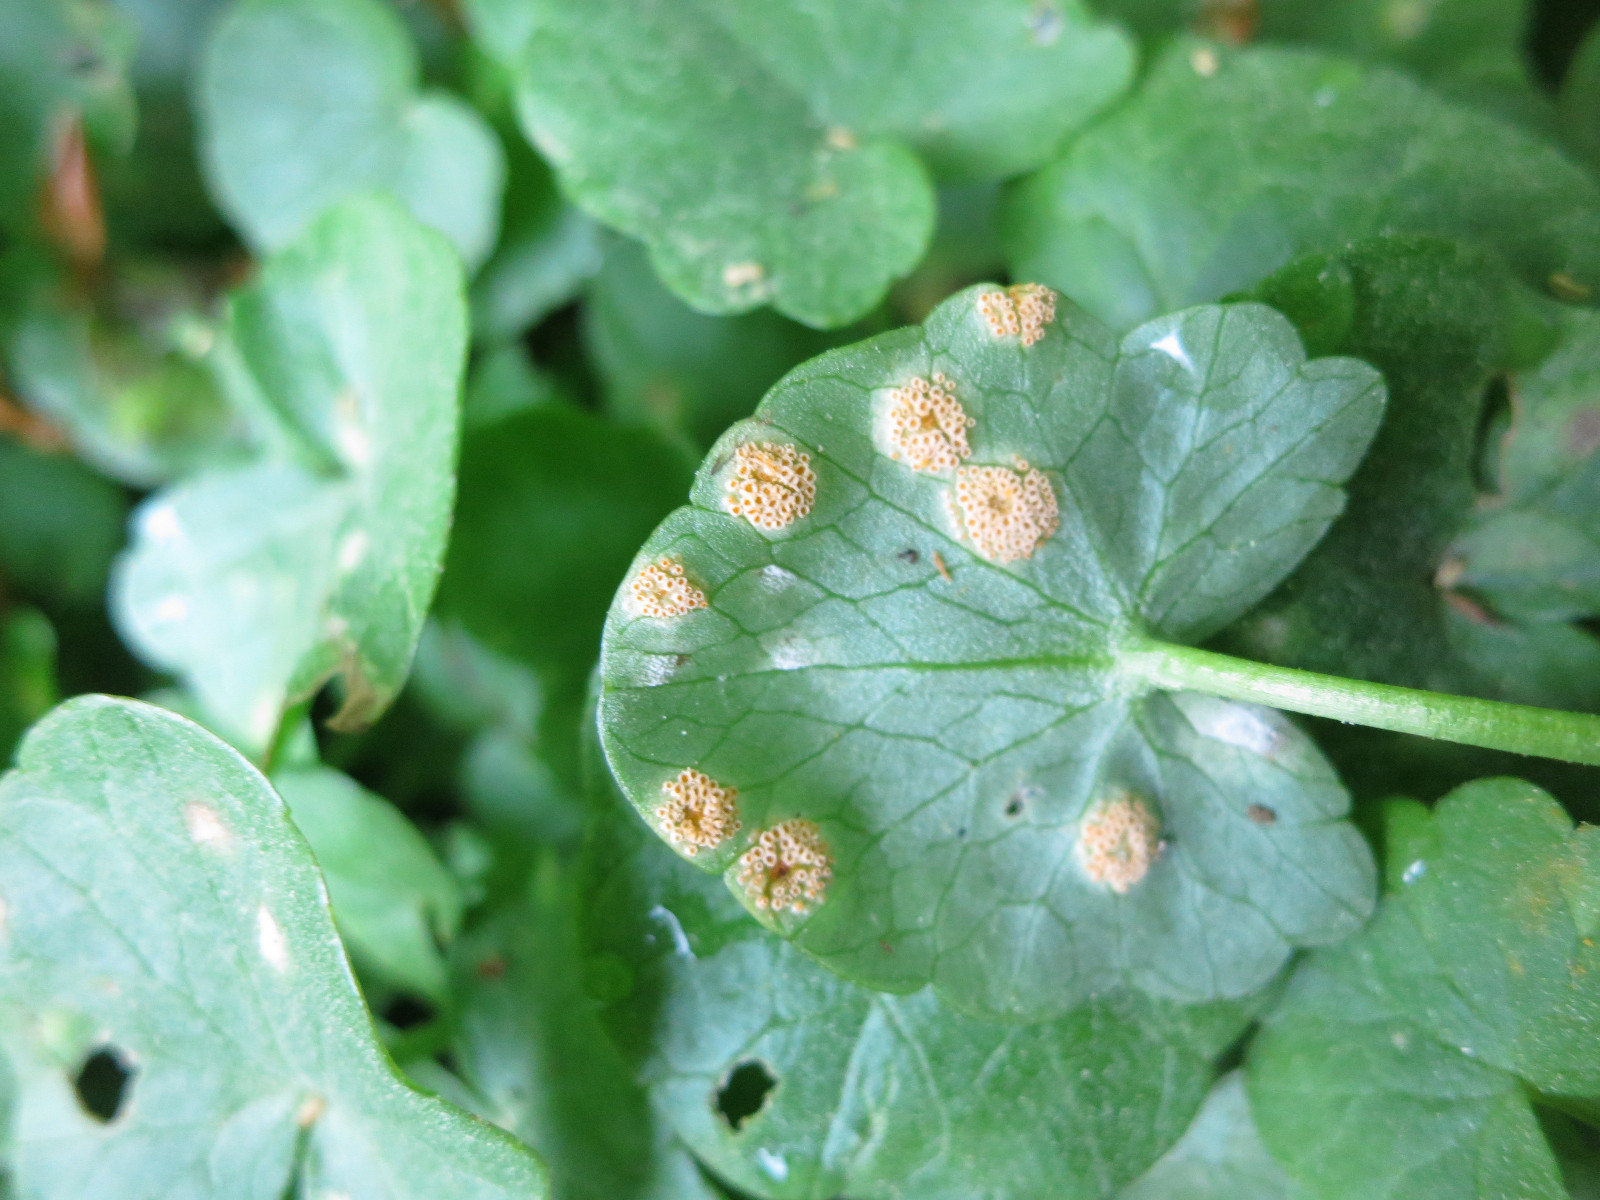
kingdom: Fungi
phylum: Basidiomycota
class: Pucciniomycetes
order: Pucciniales
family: Pucciniaceae
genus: Uromyces
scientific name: Uromyces dactylidis
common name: ranunkel-encellerust
